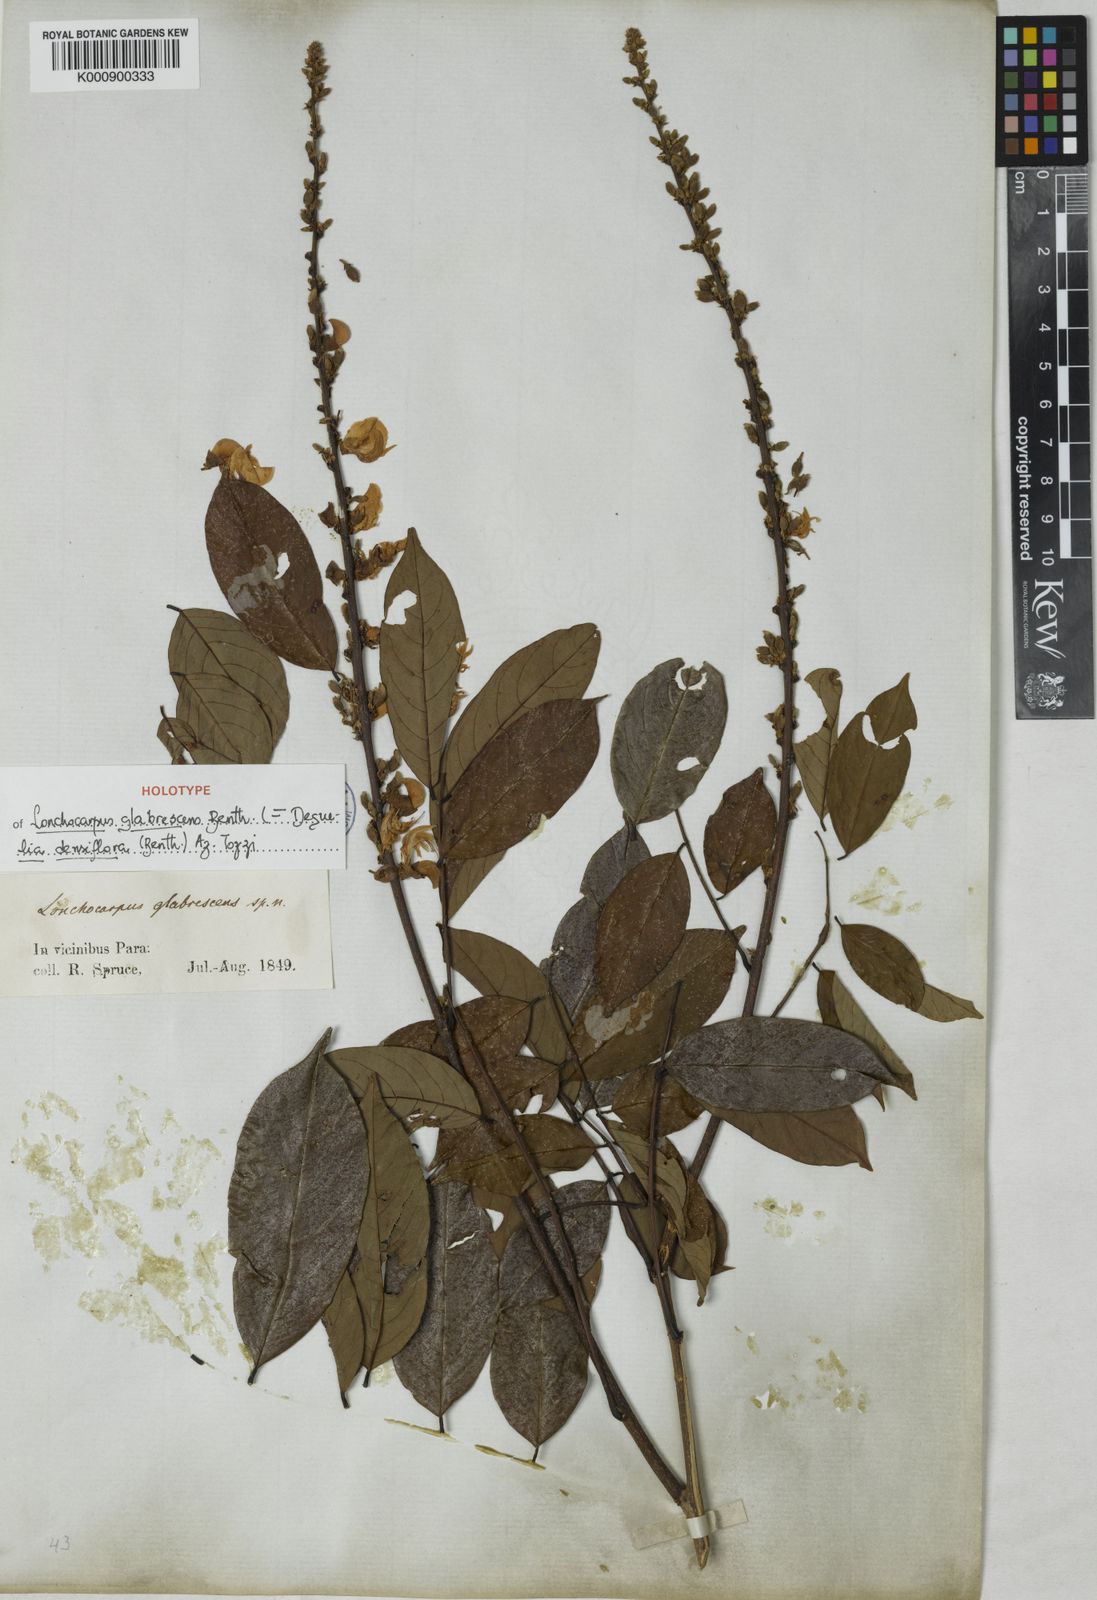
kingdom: Plantae
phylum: Tracheophyta
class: Magnoliopsida
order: Fabales
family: Fabaceae
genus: Deguelia
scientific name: Deguelia densiflora
